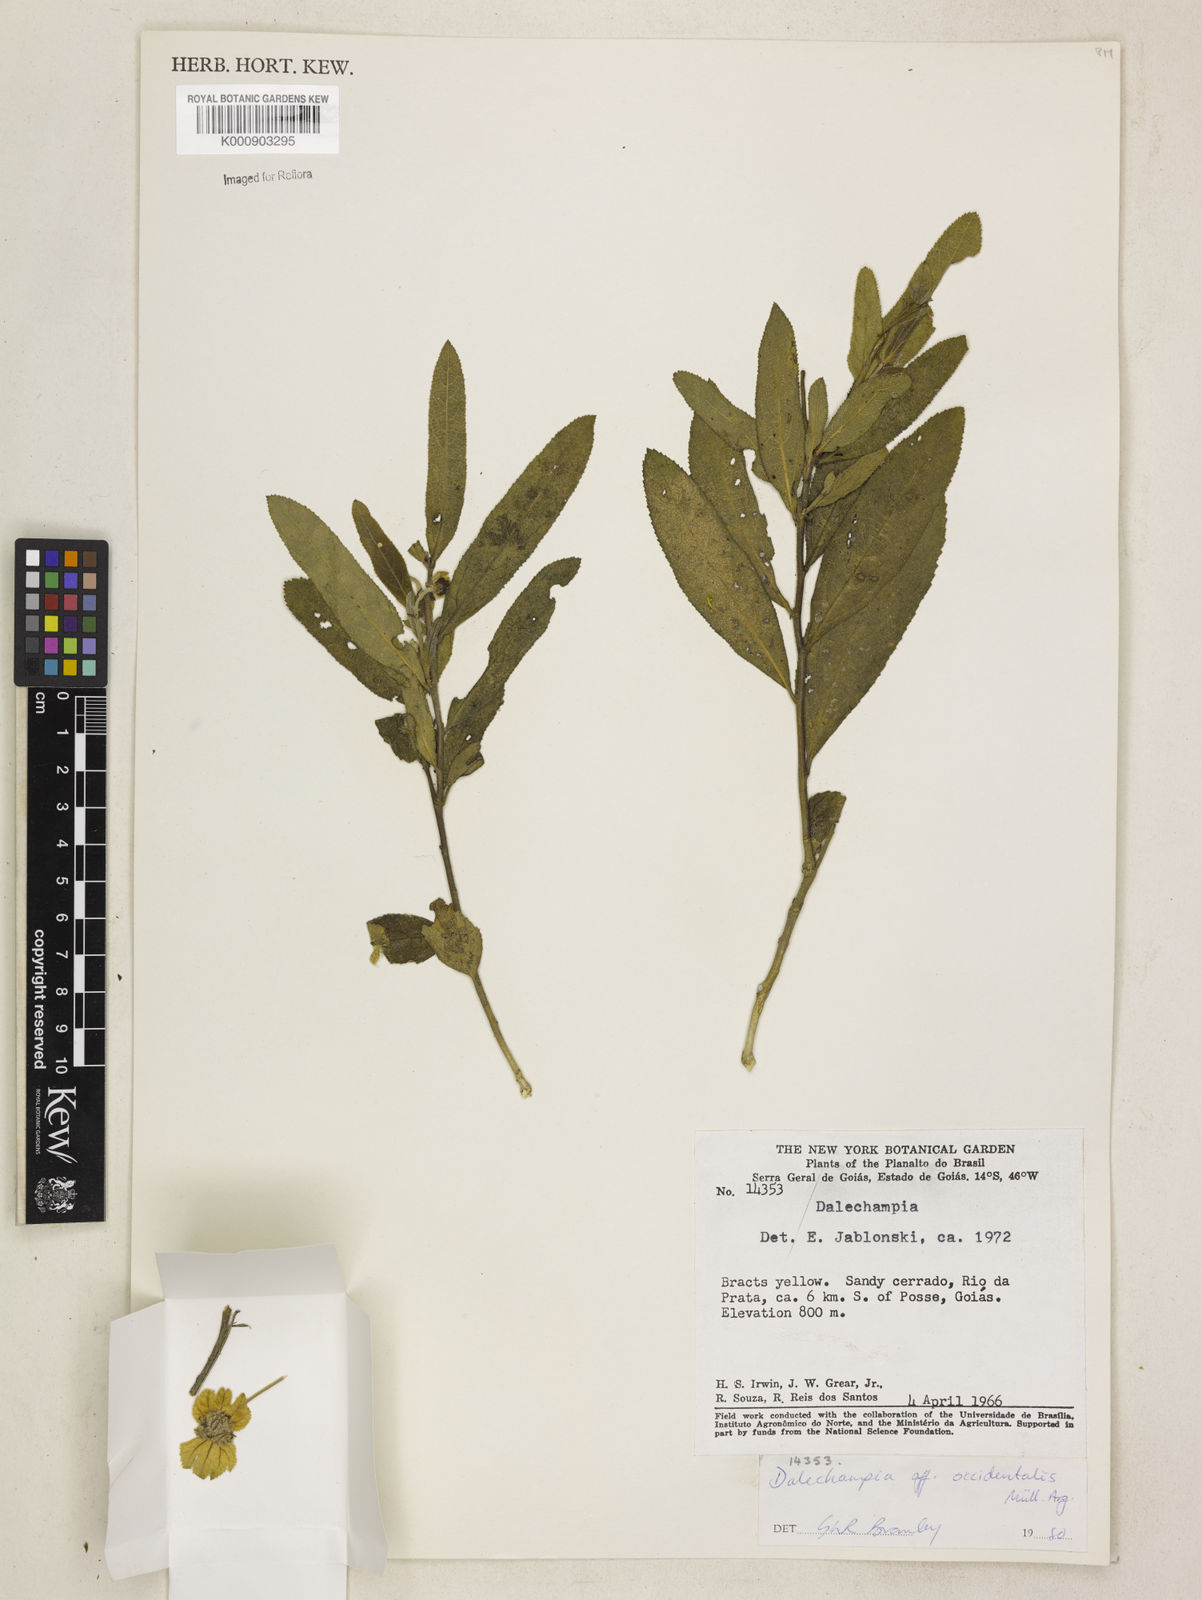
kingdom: Plantae
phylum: Tracheophyta
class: Magnoliopsida
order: Malpighiales
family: Euphorbiaceae
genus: Dalechampia
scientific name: Dalechampia
